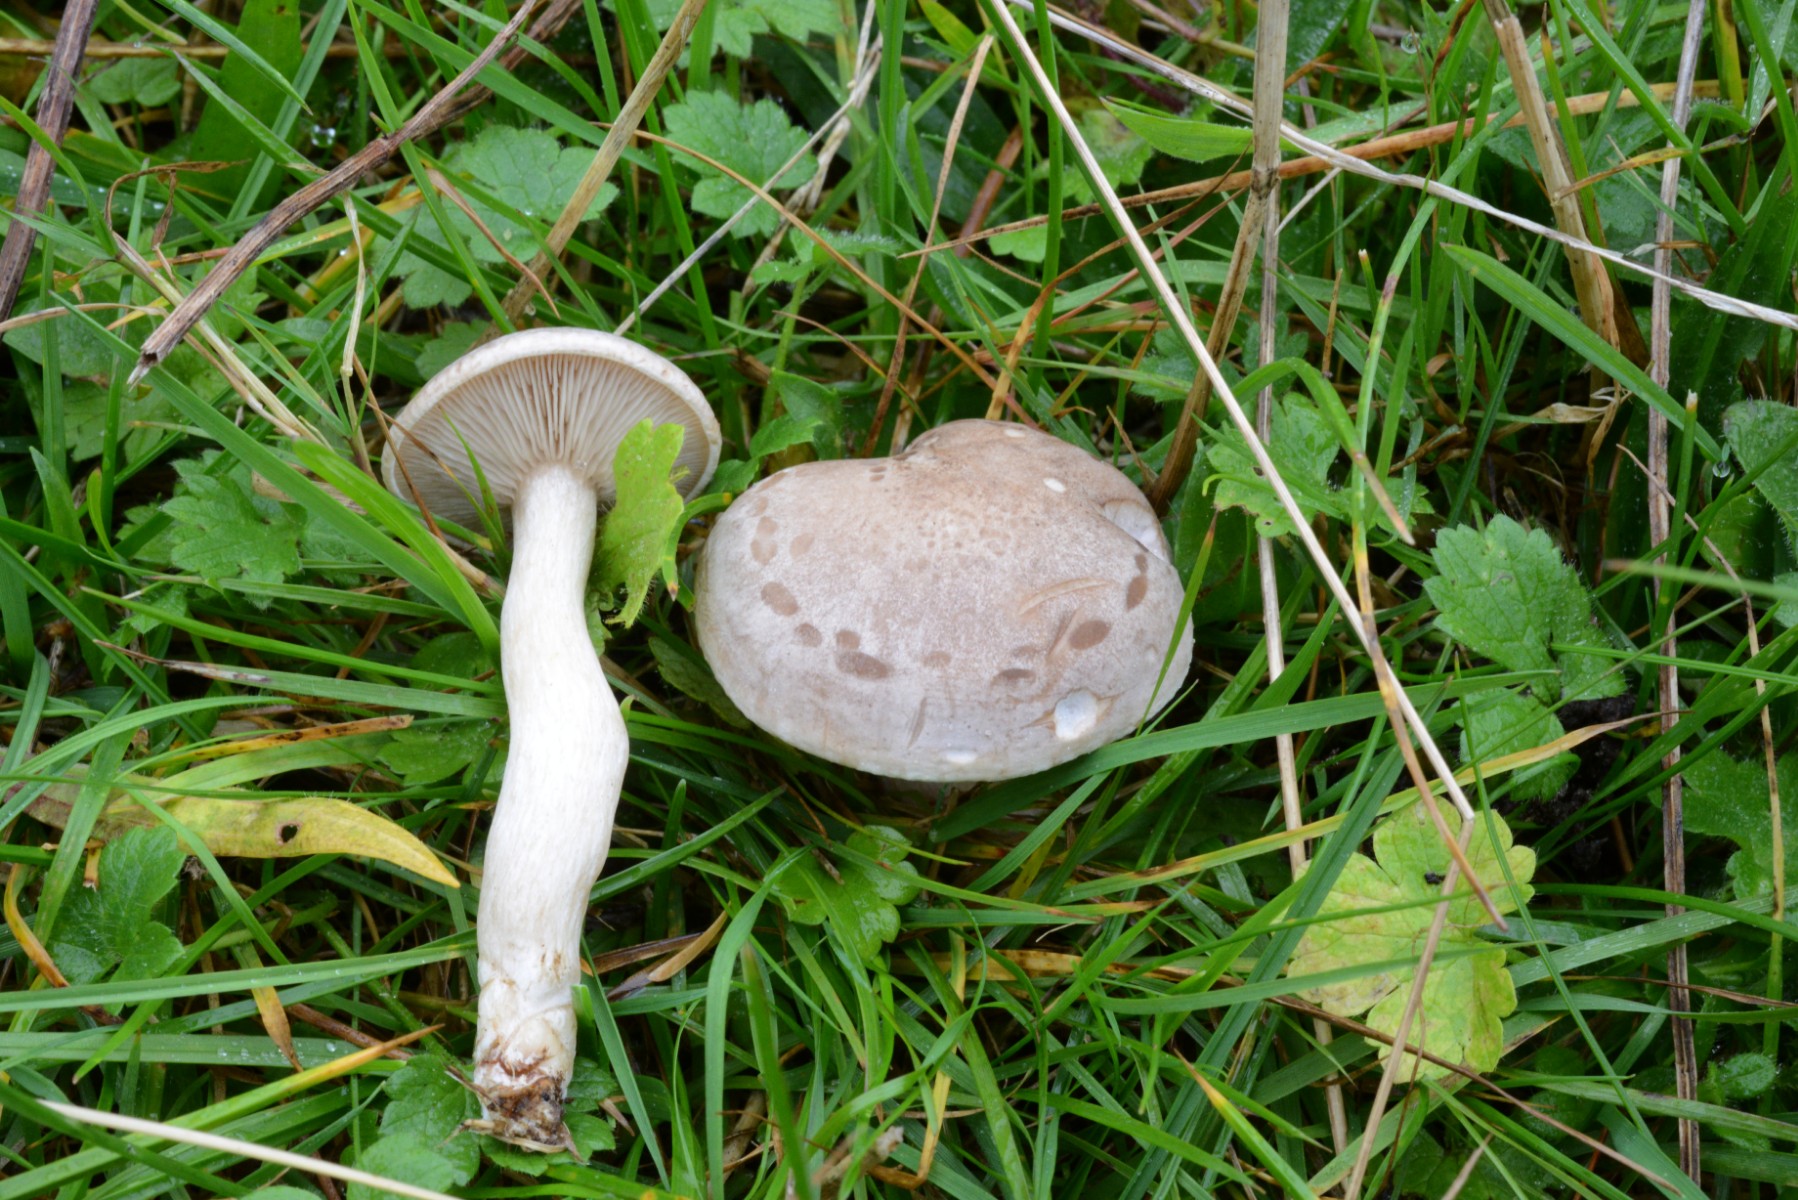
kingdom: Fungi
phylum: Basidiomycota
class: Agaricomycetes
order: Agaricales
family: Tricholomataceae
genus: Lepista
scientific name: Lepista panaeolus
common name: marmoreret hekseringshat
